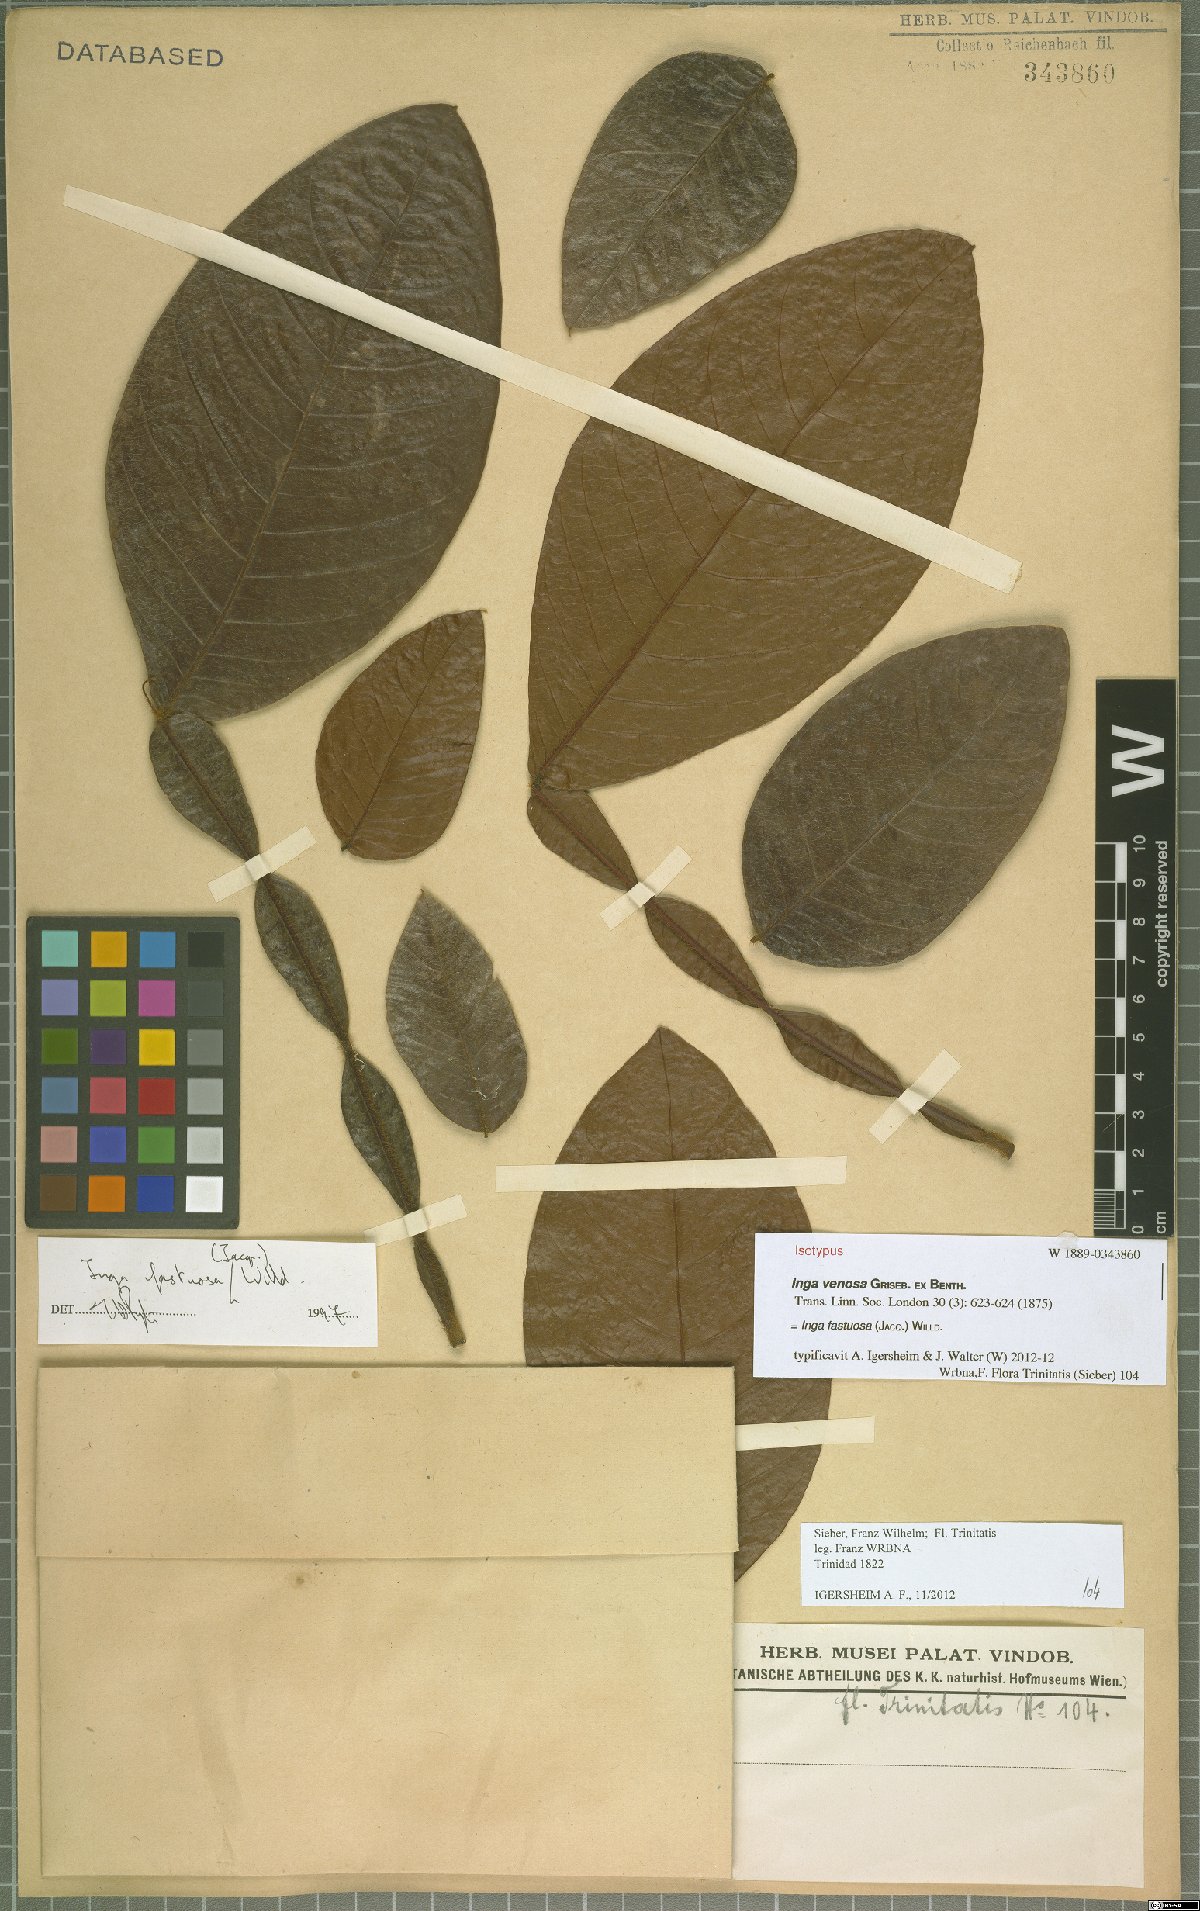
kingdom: Plantae
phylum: Tracheophyta
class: Magnoliopsida
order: Fabales
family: Fabaceae
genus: Inga
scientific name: Inga fastuosa
